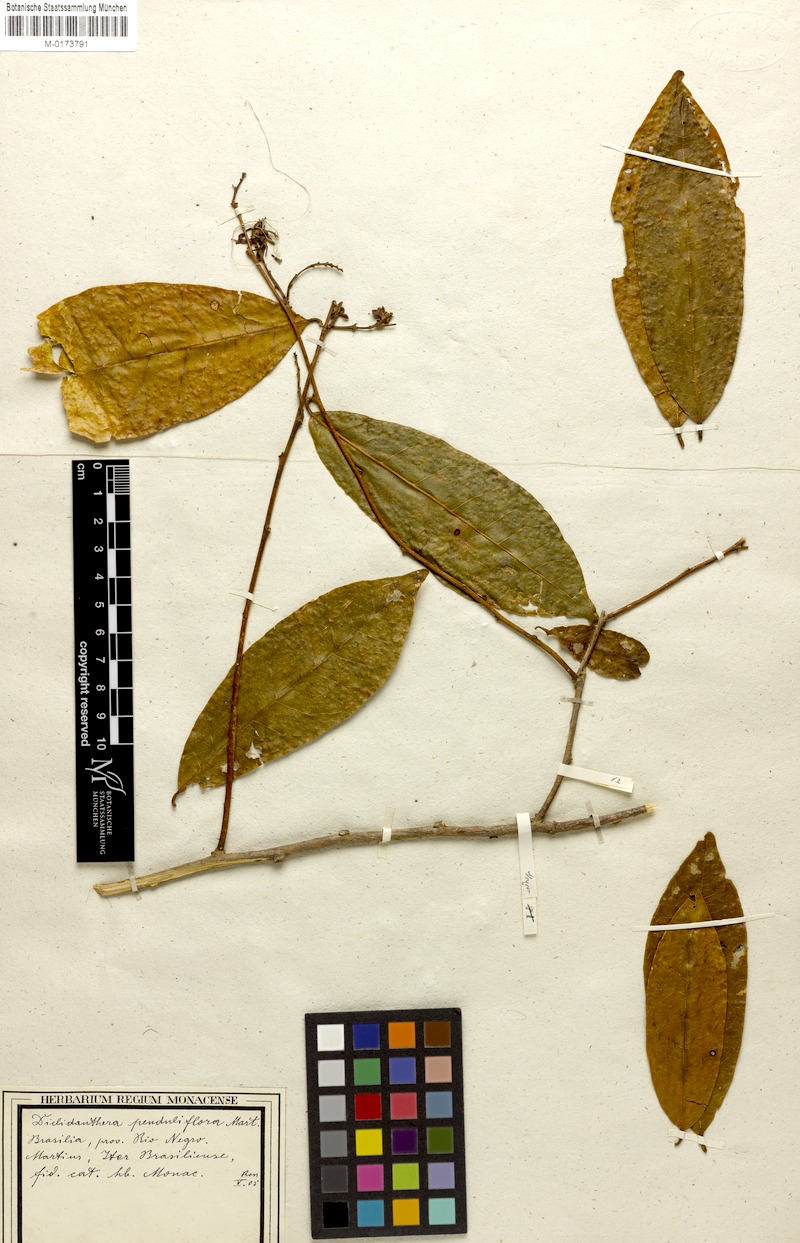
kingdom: Plantae
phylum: Tracheophyta
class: Magnoliopsida
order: Fabales
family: Polygalaceae
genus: Diclidanthera
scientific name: Diclidanthera penduliflora
